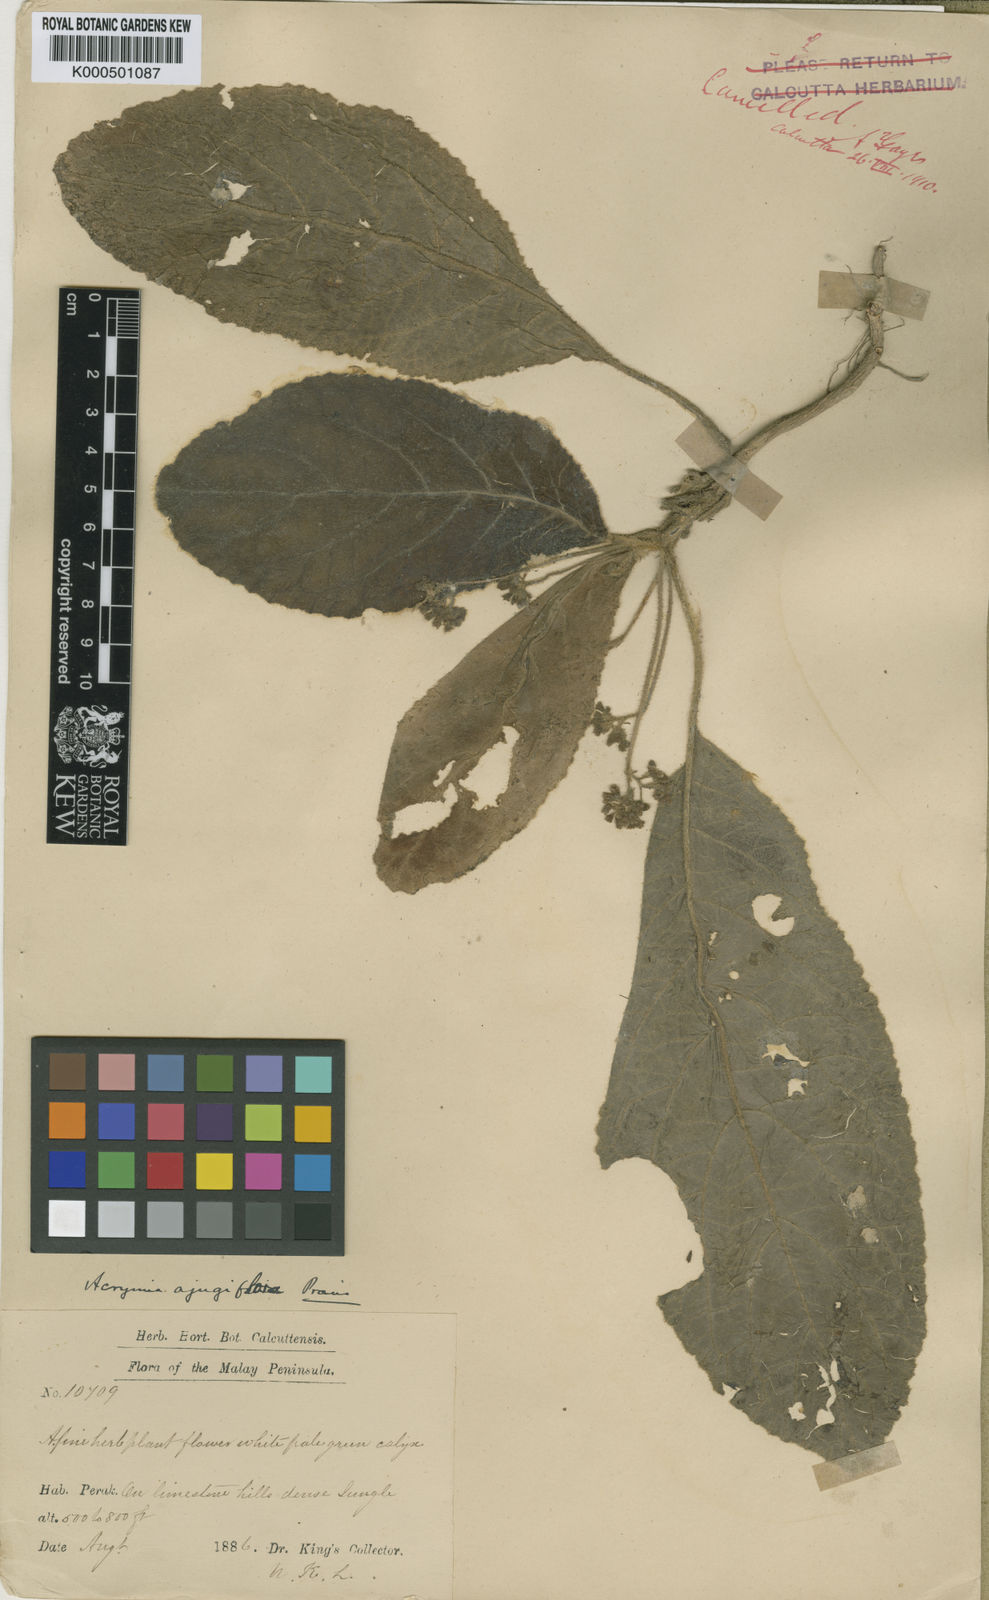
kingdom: Plantae
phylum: Tracheophyta
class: Magnoliopsida
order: Lamiales
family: Lamiaceae
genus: Acrymia
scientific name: Acrymia ajugiflora
